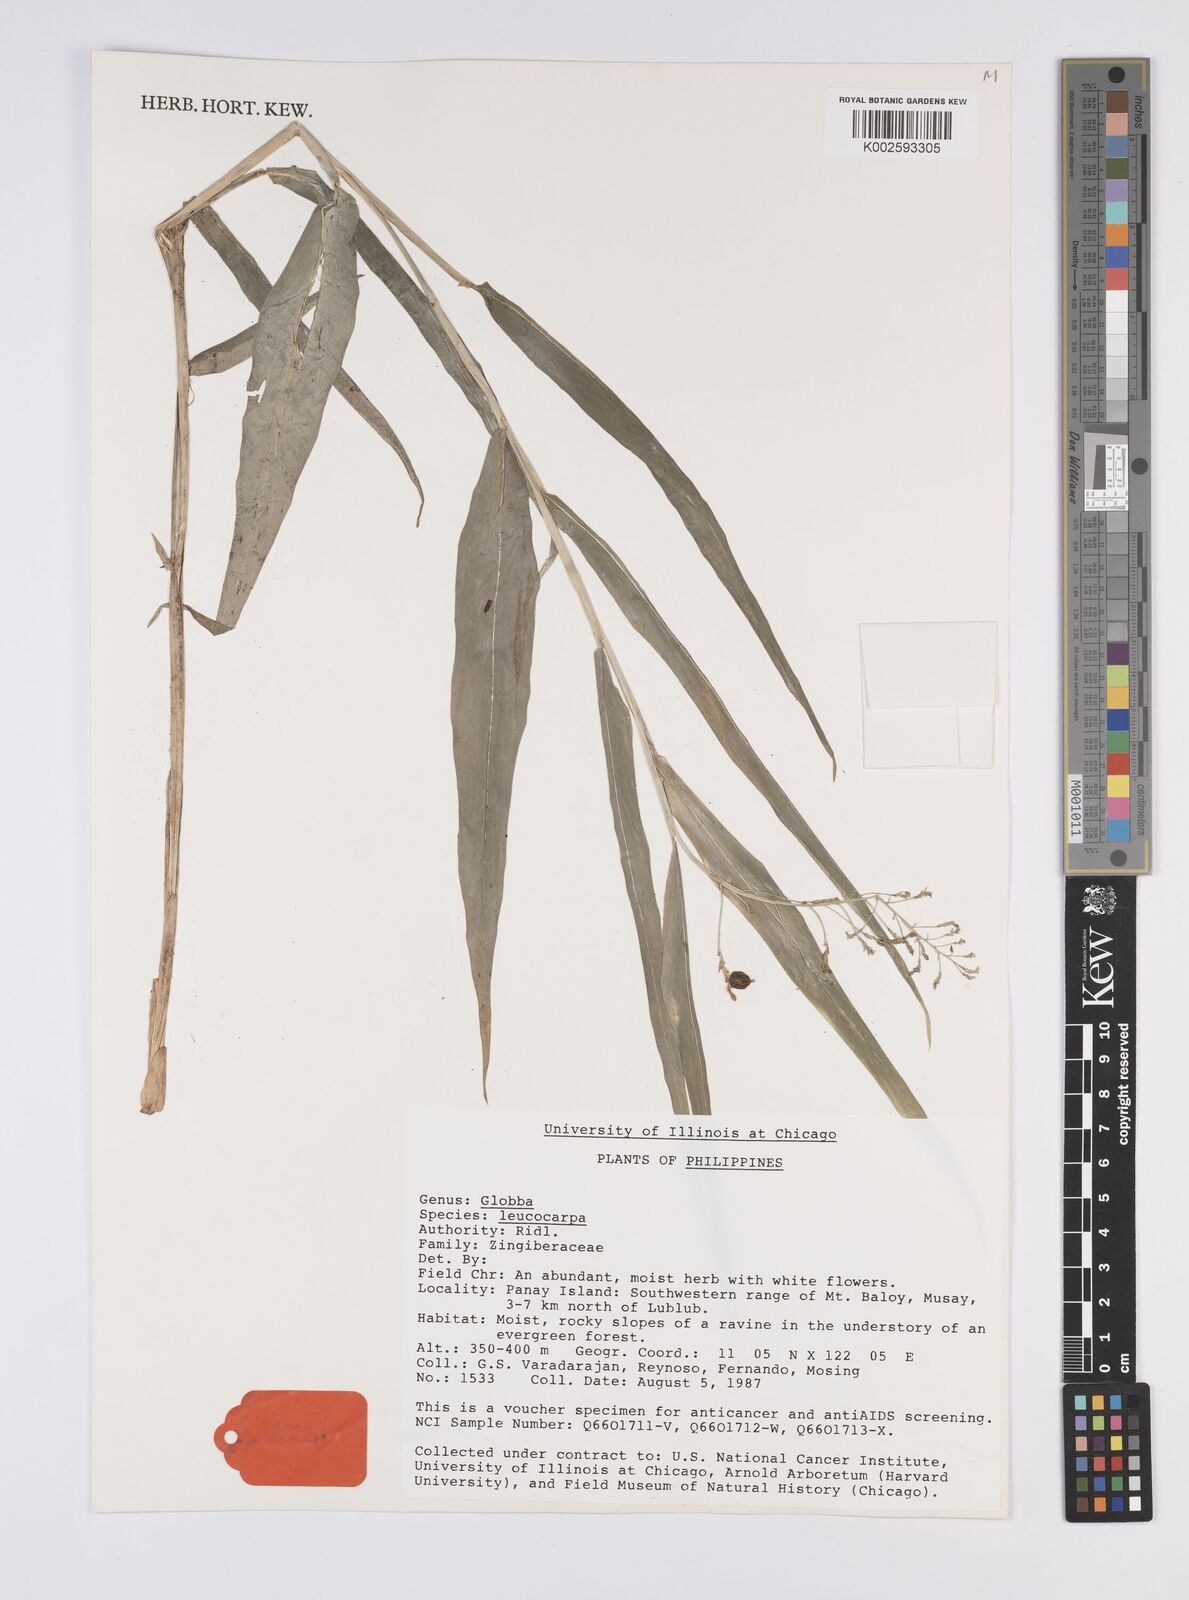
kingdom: Plantae
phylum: Tracheophyta
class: Liliopsida
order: Zingiberales
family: Zingiberaceae
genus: Globba
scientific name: Globba gracilis
